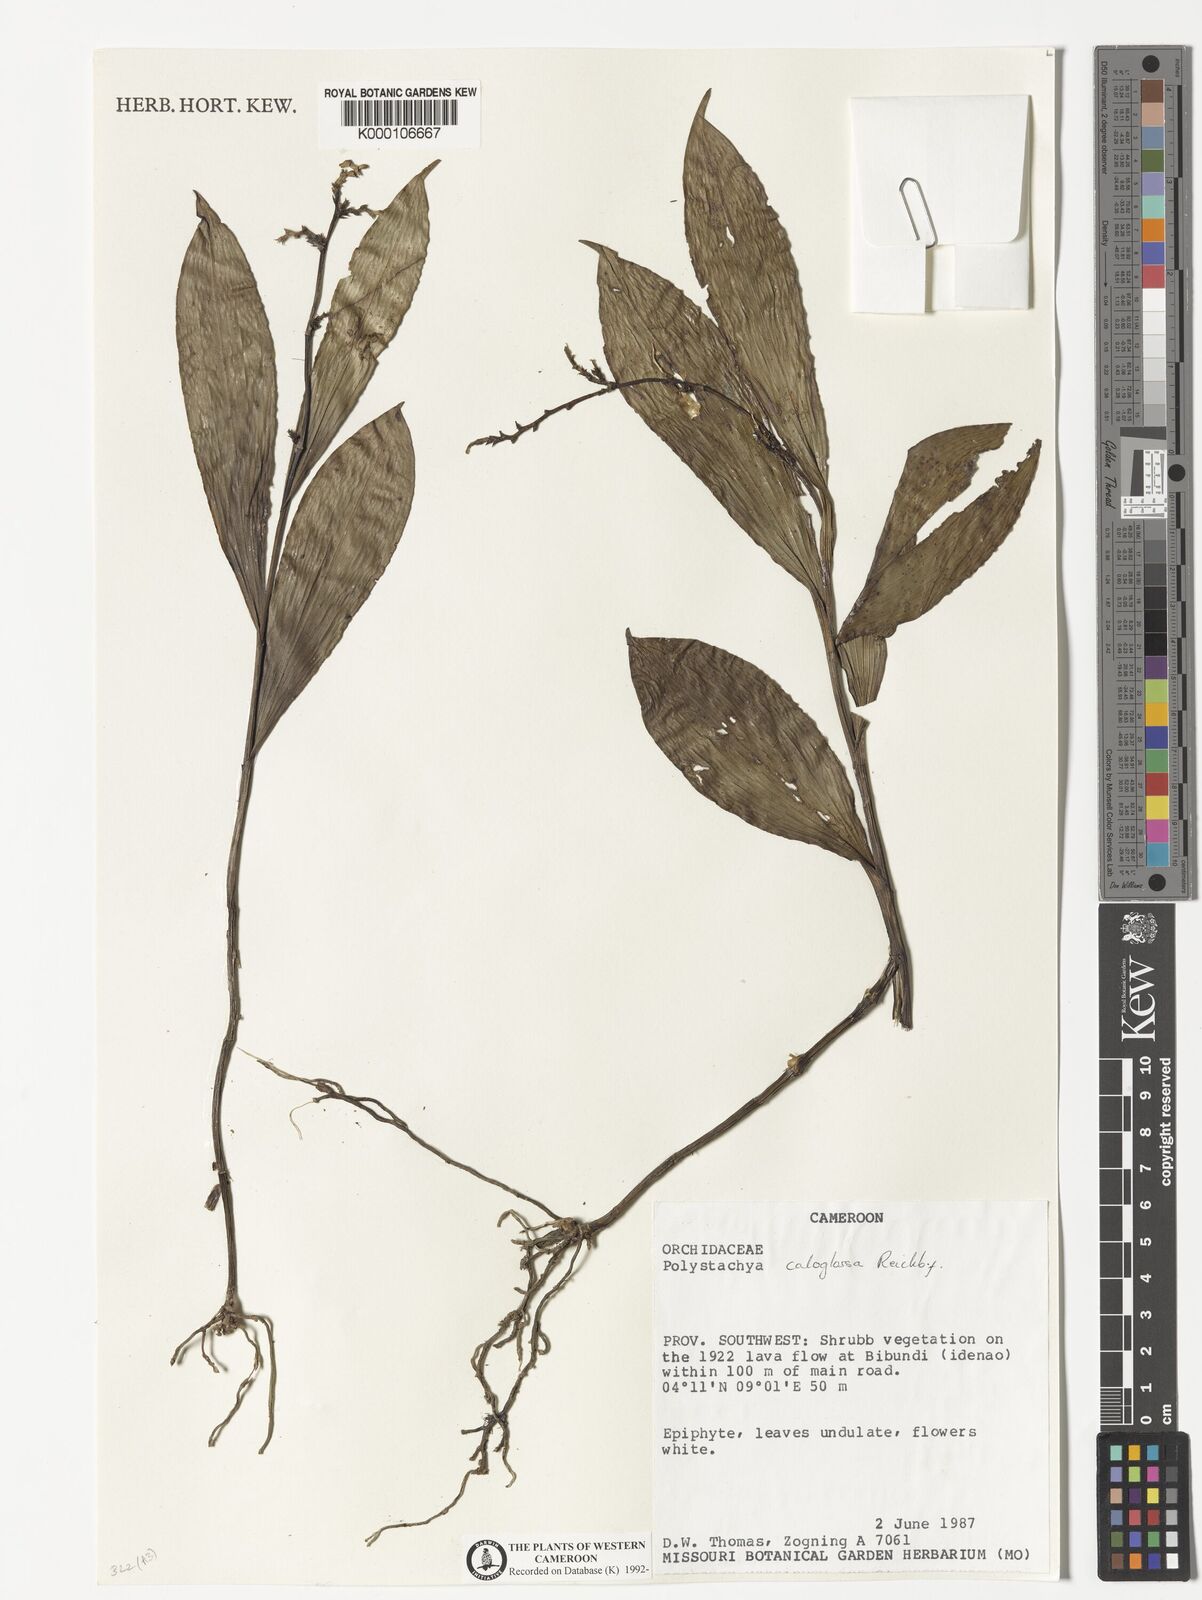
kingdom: Plantae
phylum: Tracheophyta
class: Liliopsida
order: Asparagales
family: Orchidaceae
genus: Polystachya
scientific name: Polystachya caloglossa
